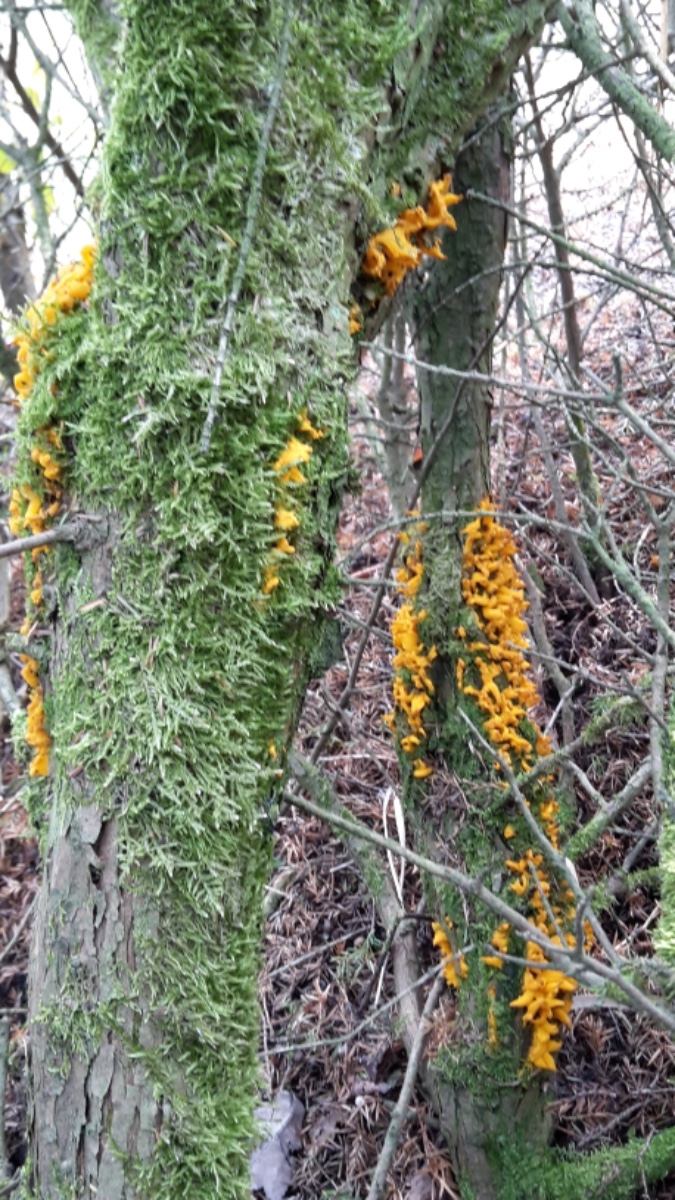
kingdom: Fungi
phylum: Basidiomycota
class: Pucciniomycetes
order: Pucciniales
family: Gymnosporangiaceae
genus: Gymnosporangium
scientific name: Gymnosporangium clavariiforme
